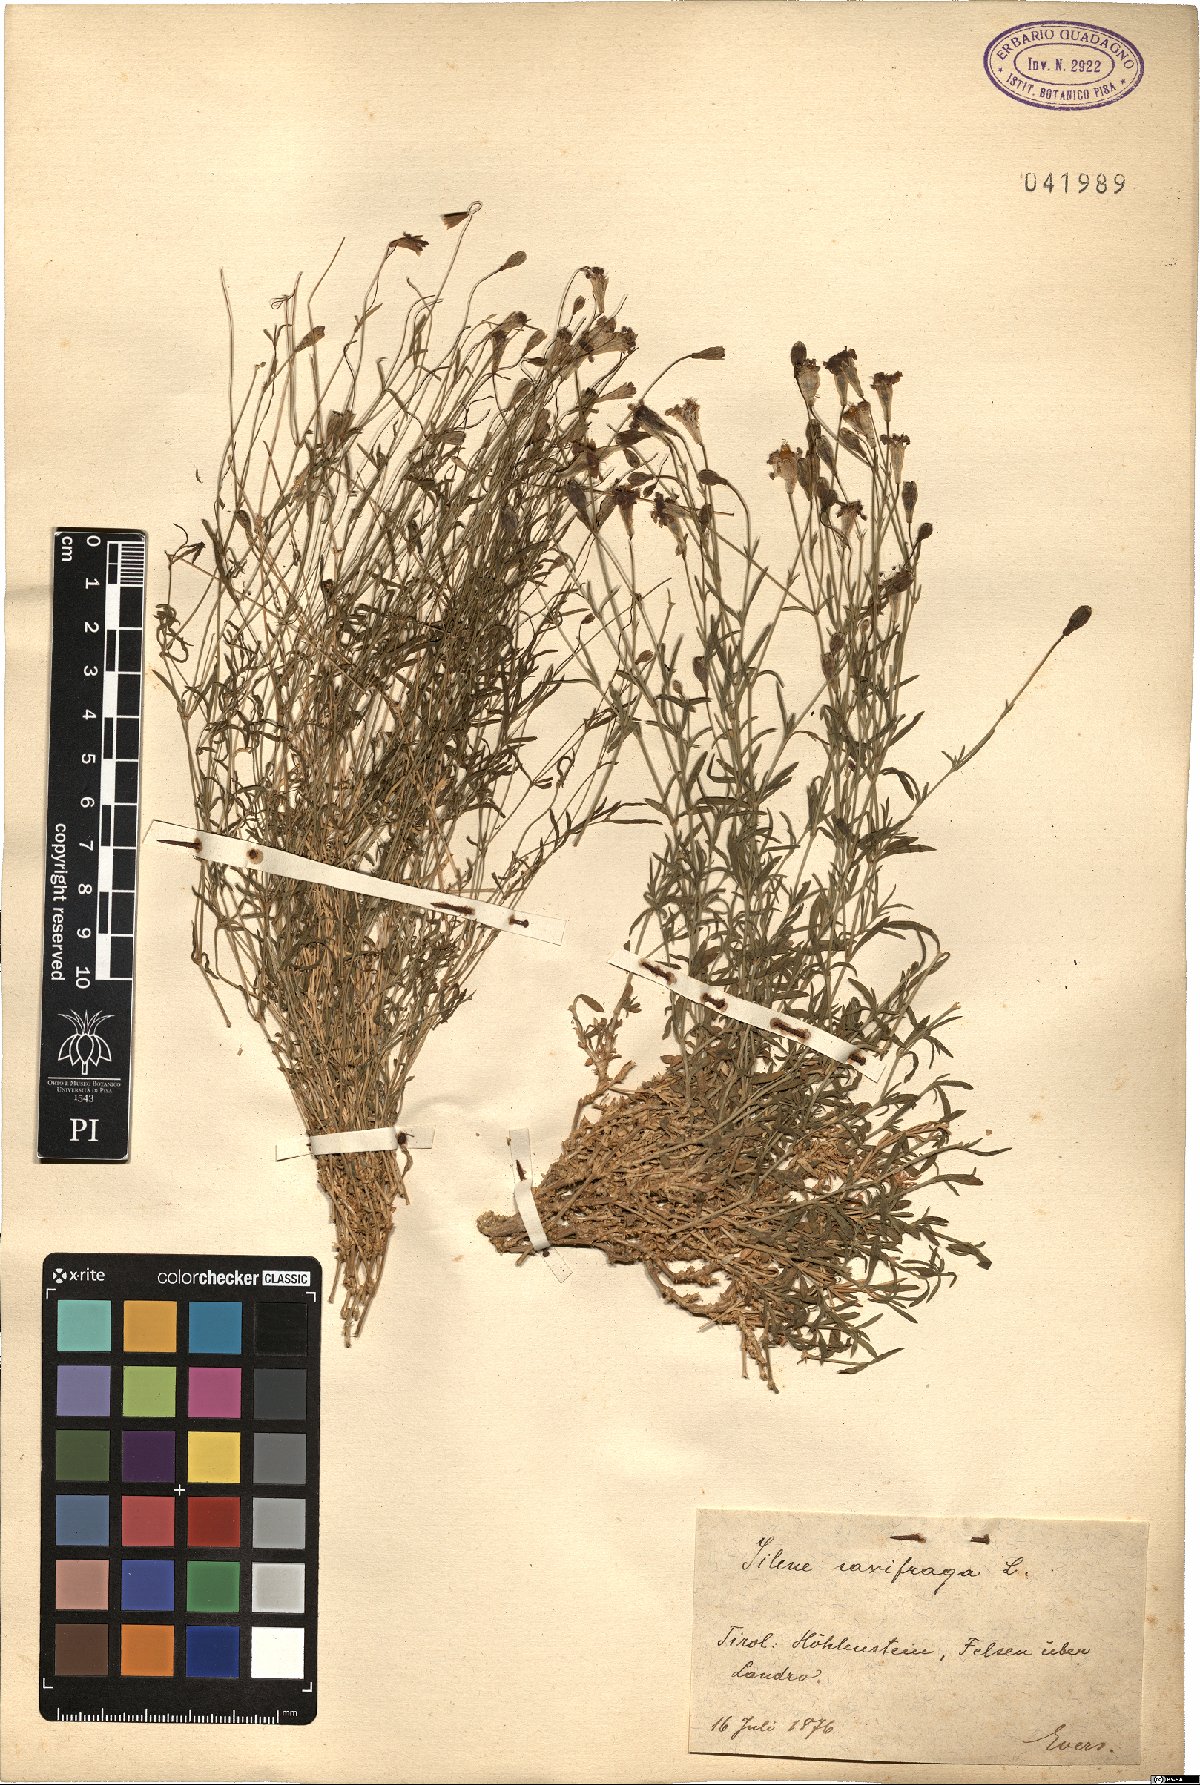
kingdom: Plantae
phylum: Tracheophyta
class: Magnoliopsida
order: Caryophyllales
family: Caryophyllaceae
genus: Silene
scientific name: Silene saxifraga
